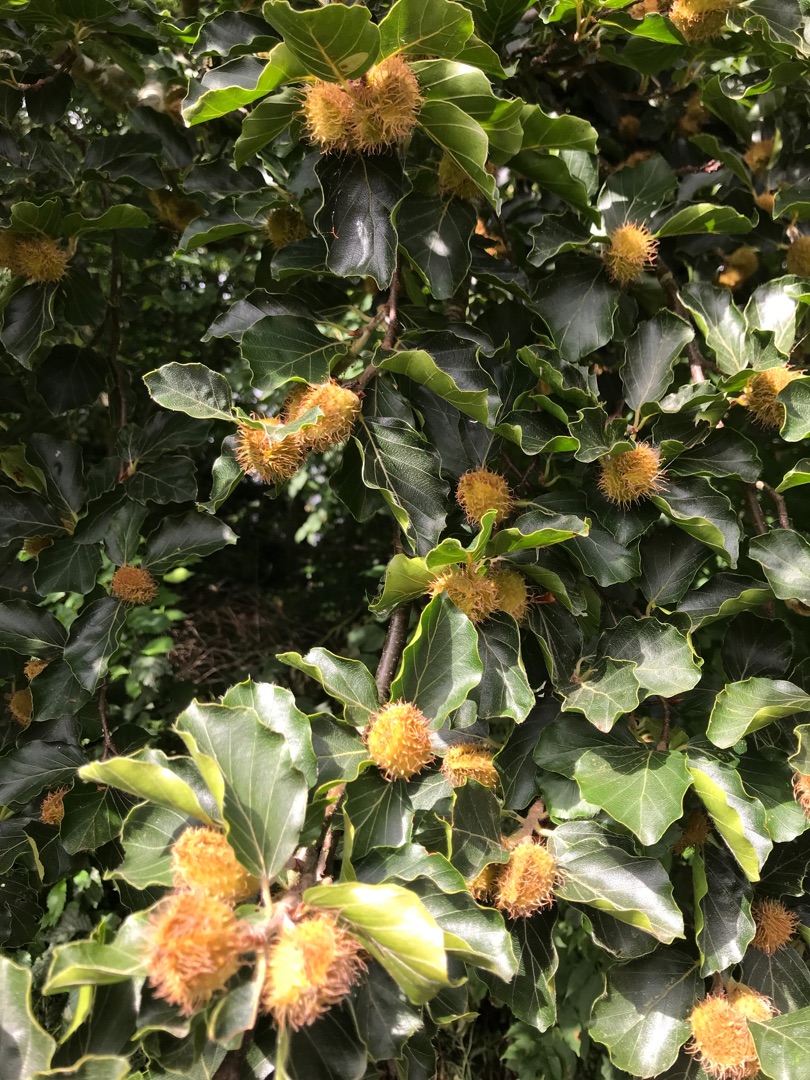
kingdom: Plantae
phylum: Tracheophyta
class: Magnoliopsida
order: Fagales
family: Fagaceae
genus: Fagus
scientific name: Fagus sylvatica
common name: Bøg
